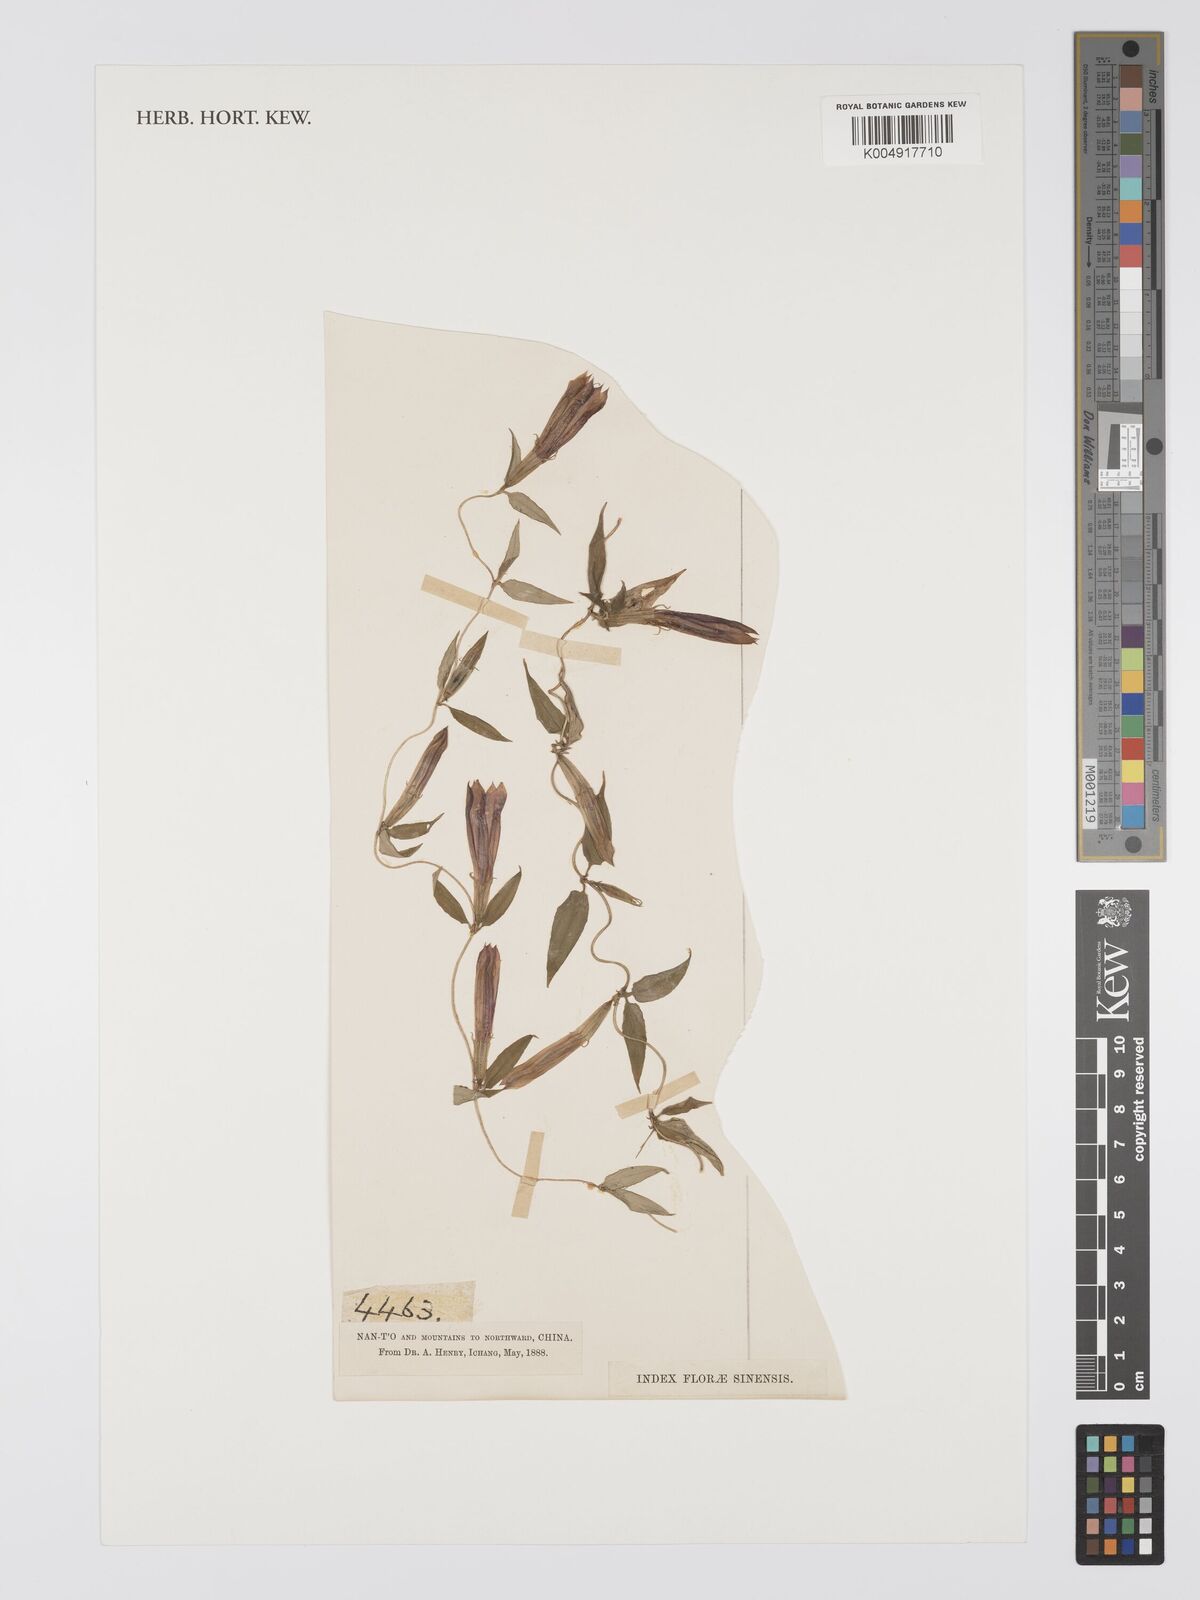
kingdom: Plantae
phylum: Tracheophyta
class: Magnoliopsida
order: Gentianales
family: Gentianaceae
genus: Tripterospermum
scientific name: Tripterospermum discoideum
